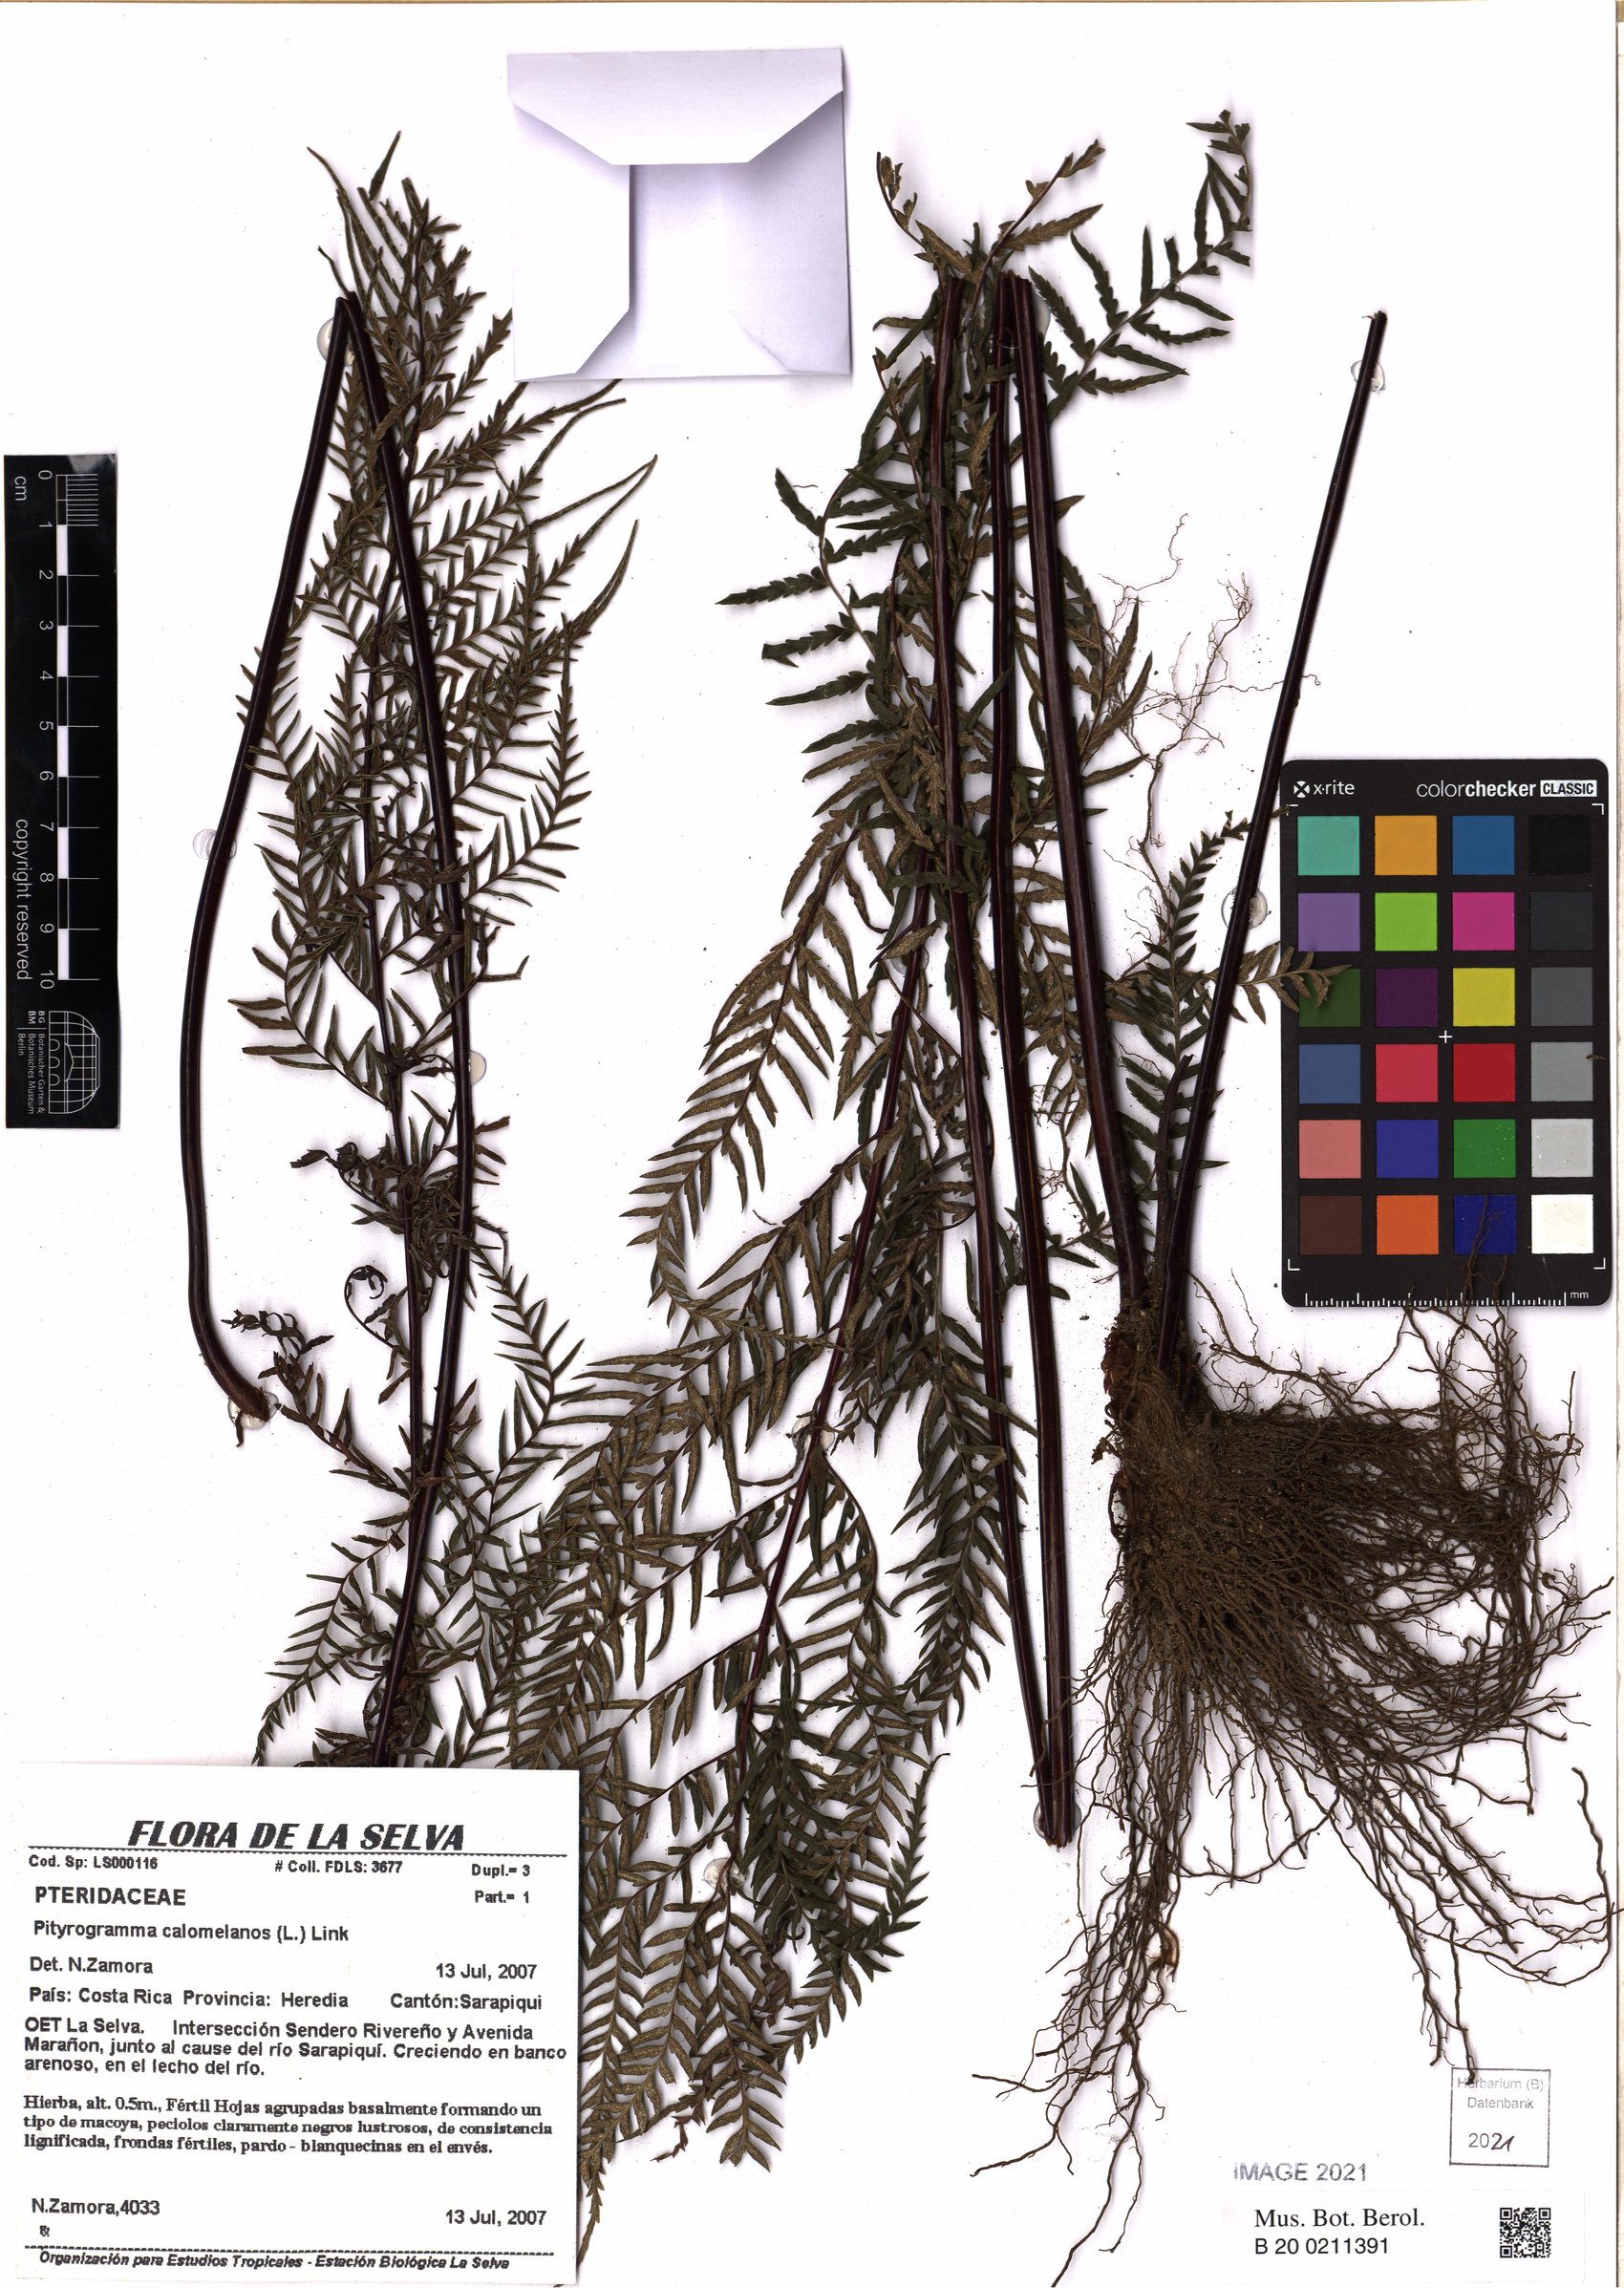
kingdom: Plantae
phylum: Tracheophyta
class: Polypodiopsida
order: Polypodiales
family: Pteridaceae
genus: Pityrogramma
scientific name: Pityrogramma calomelanos
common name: Dixie silverback fern
